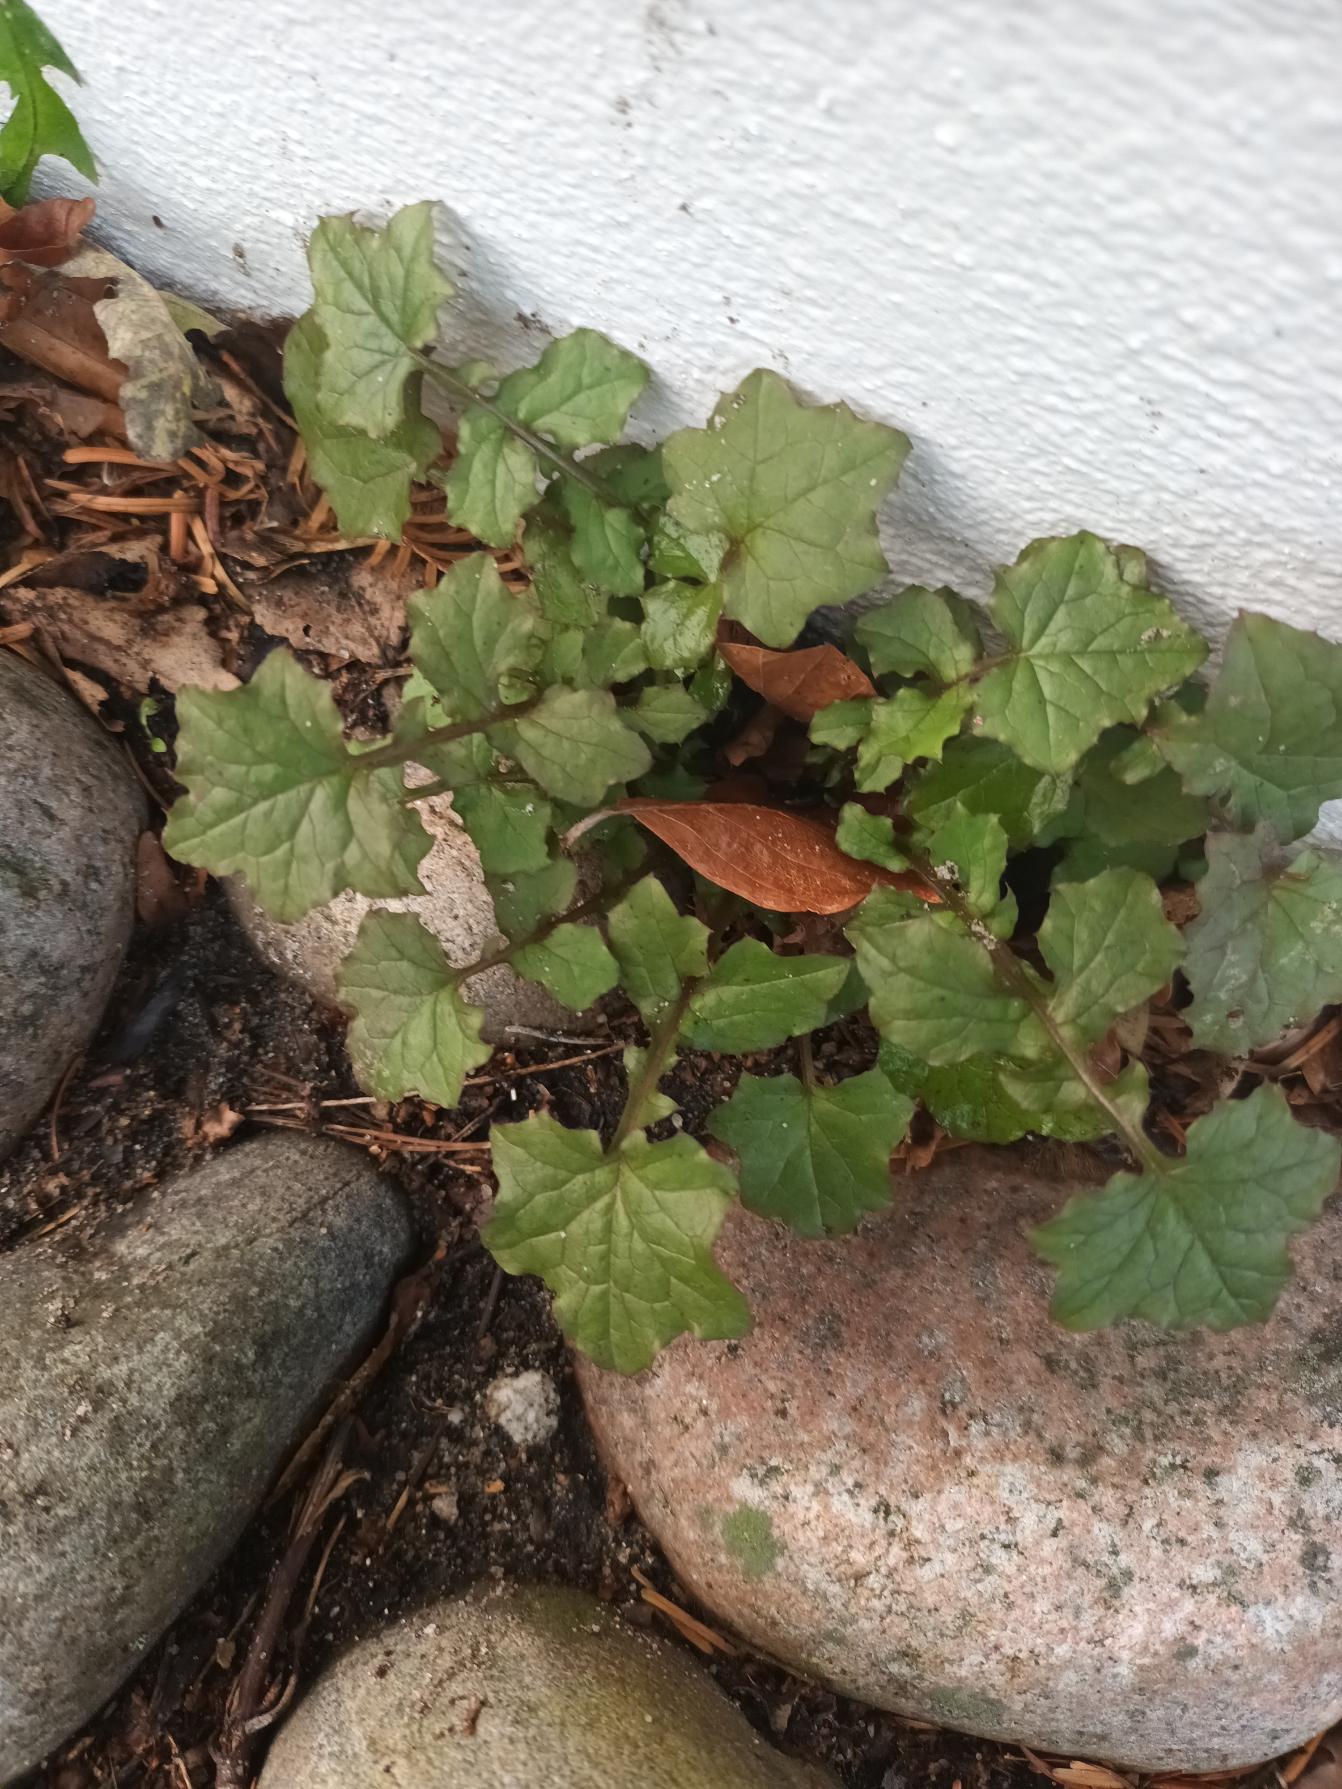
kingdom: Plantae
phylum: Tracheophyta
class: Magnoliopsida
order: Asterales
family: Asteraceae
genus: Mycelis
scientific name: Mycelis muralis
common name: Skov-salat
